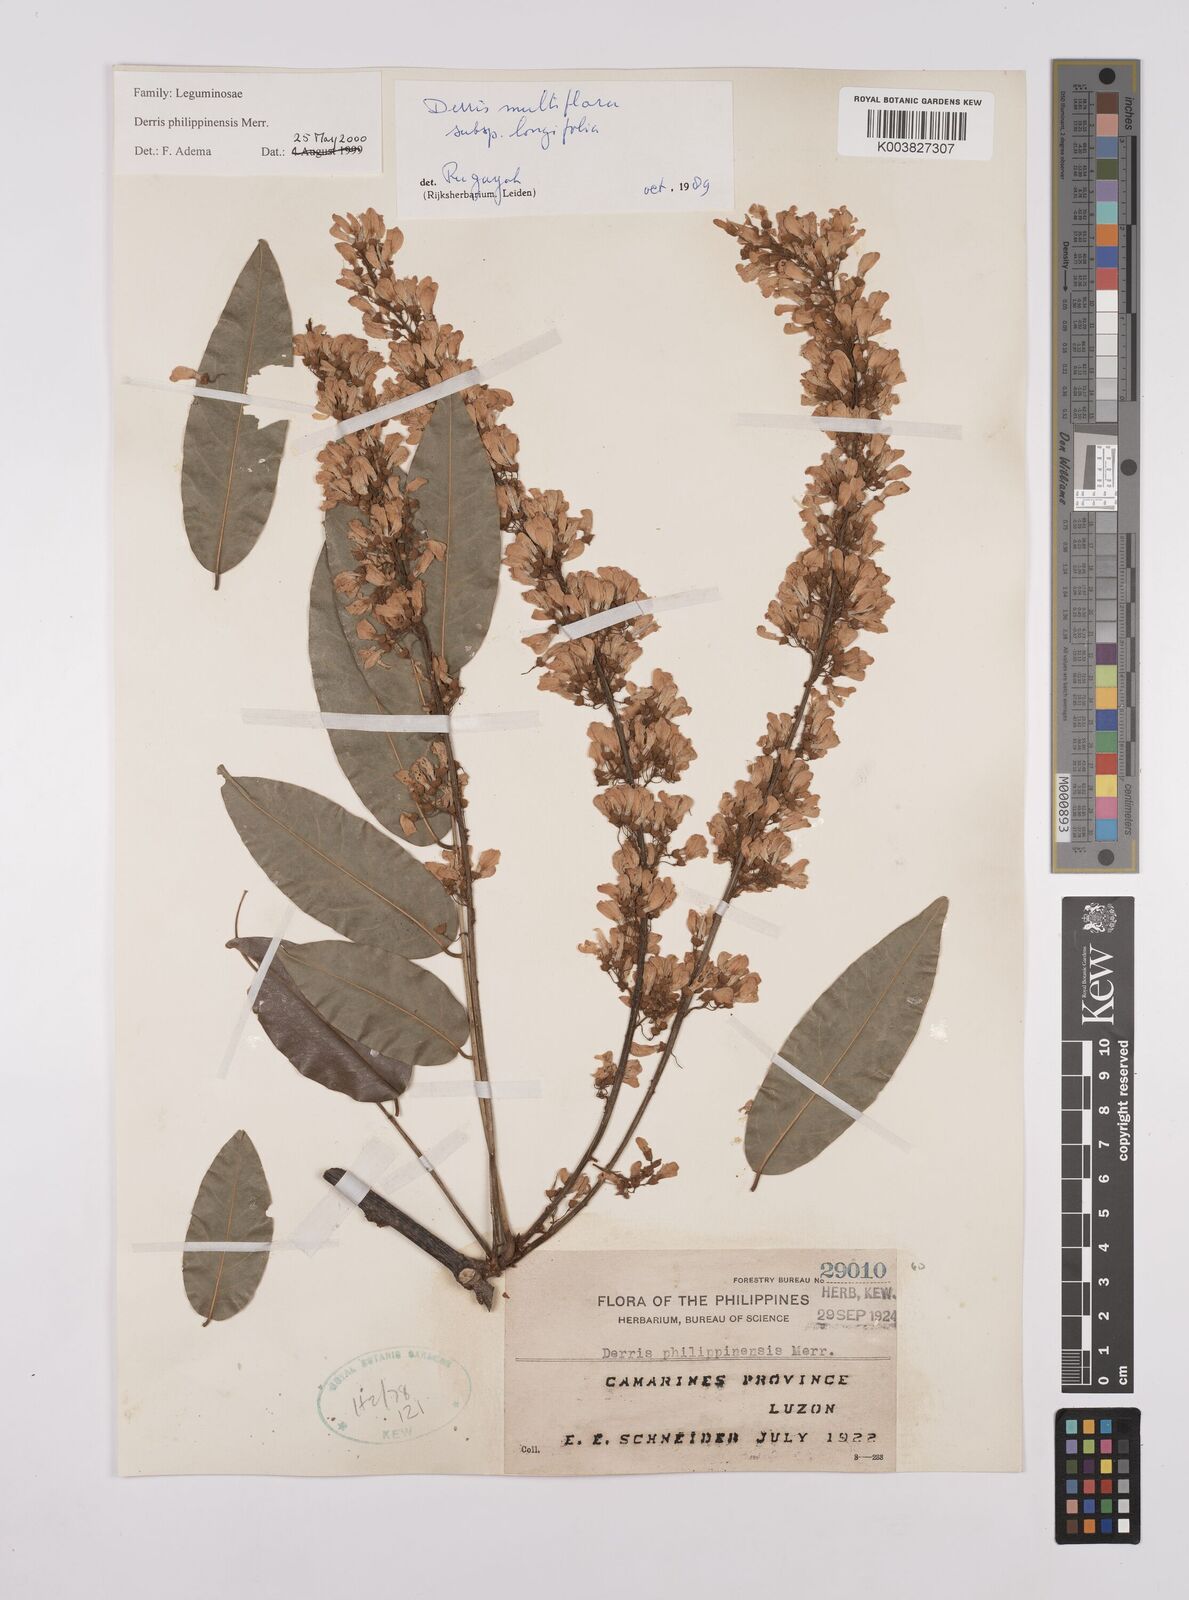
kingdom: Plantae
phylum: Tracheophyta
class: Magnoliopsida
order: Fabales
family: Fabaceae
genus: Brachypterum
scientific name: Brachypterum philippinense
